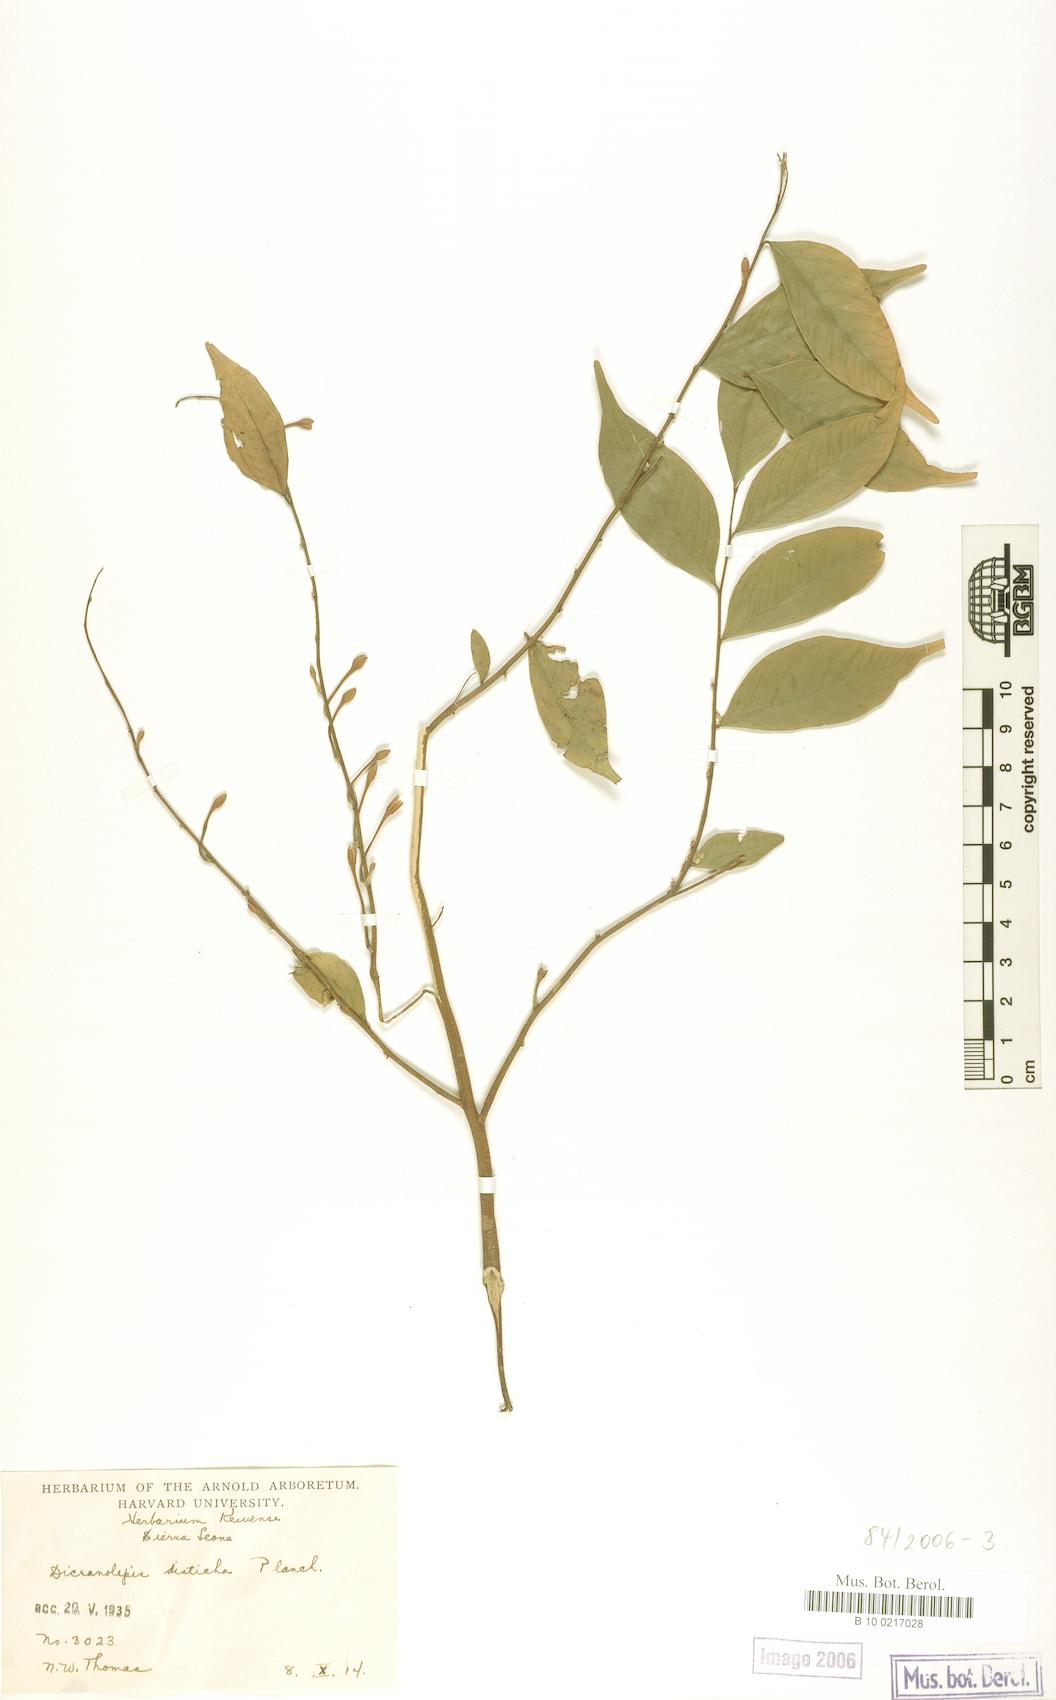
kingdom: Plantae
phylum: Tracheophyta
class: Magnoliopsida
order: Malvales
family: Thymelaeaceae
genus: Dicranolepis
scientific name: Dicranolepis disticha
